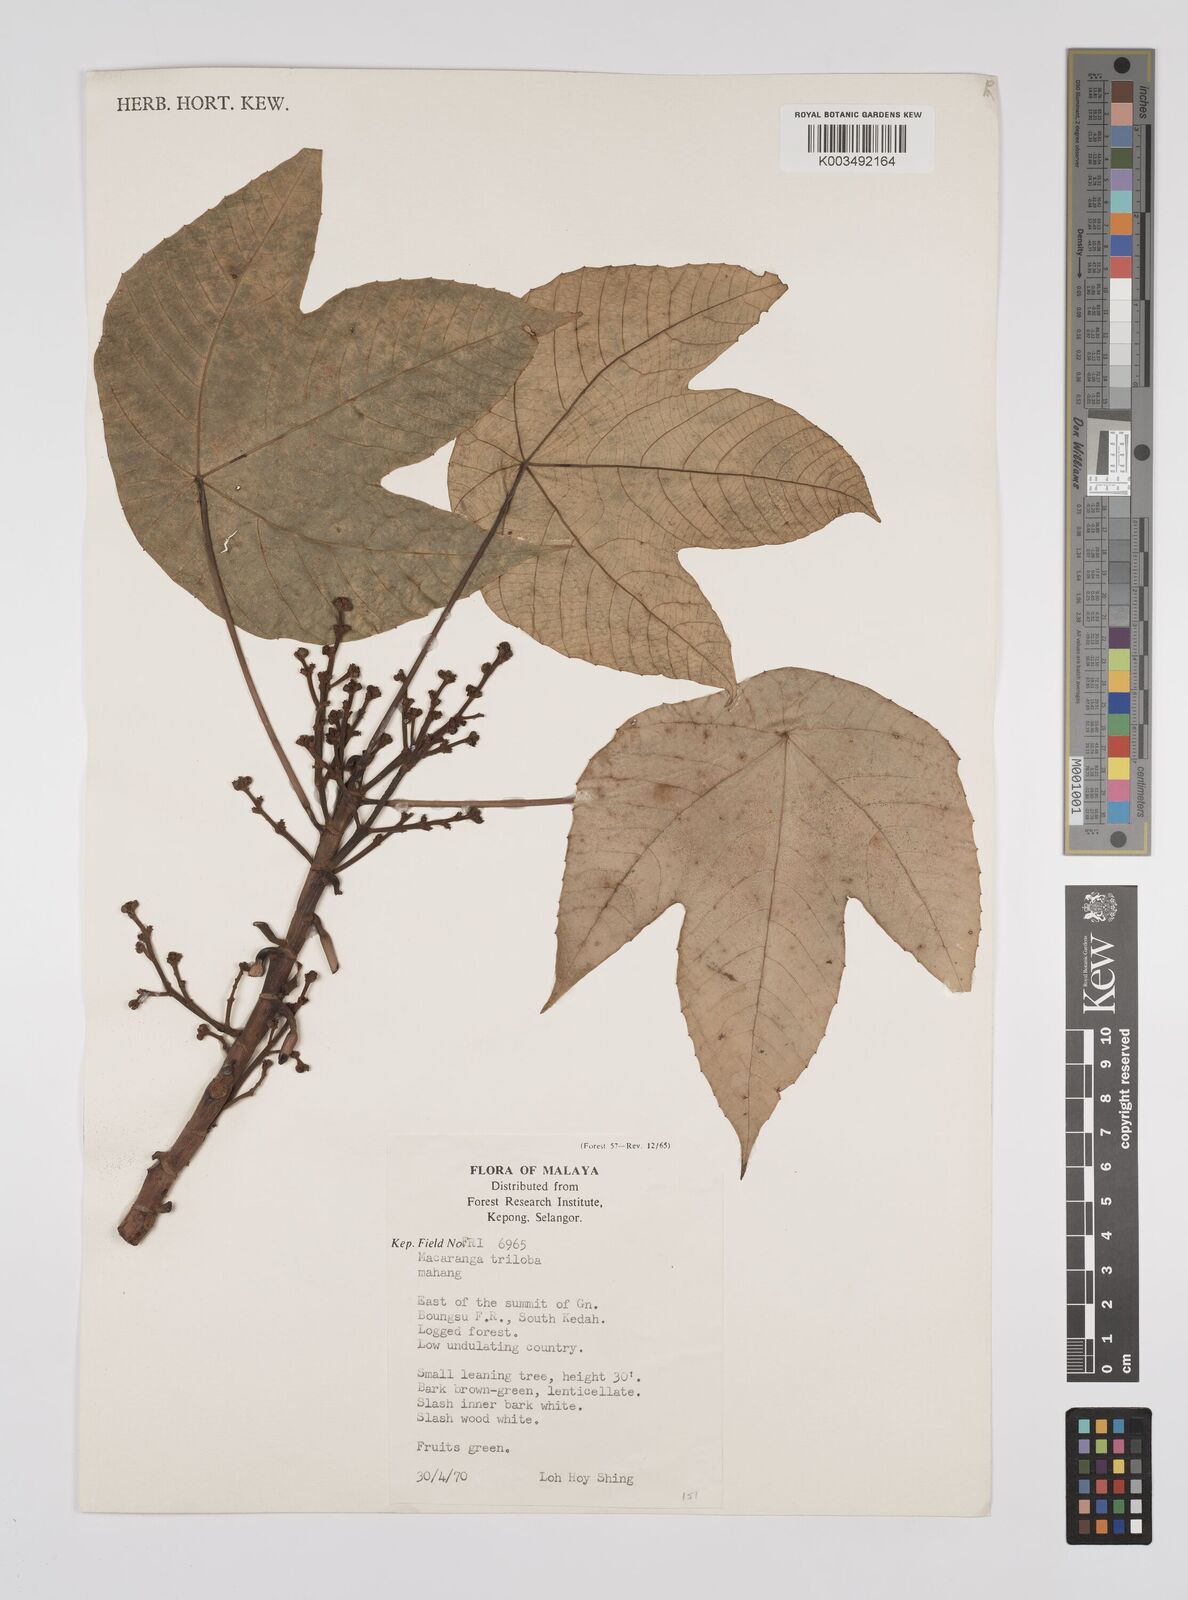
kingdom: Plantae
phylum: Tracheophyta
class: Magnoliopsida
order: Malpighiales
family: Euphorbiaceae
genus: Macaranga
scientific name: Macaranga triloba
